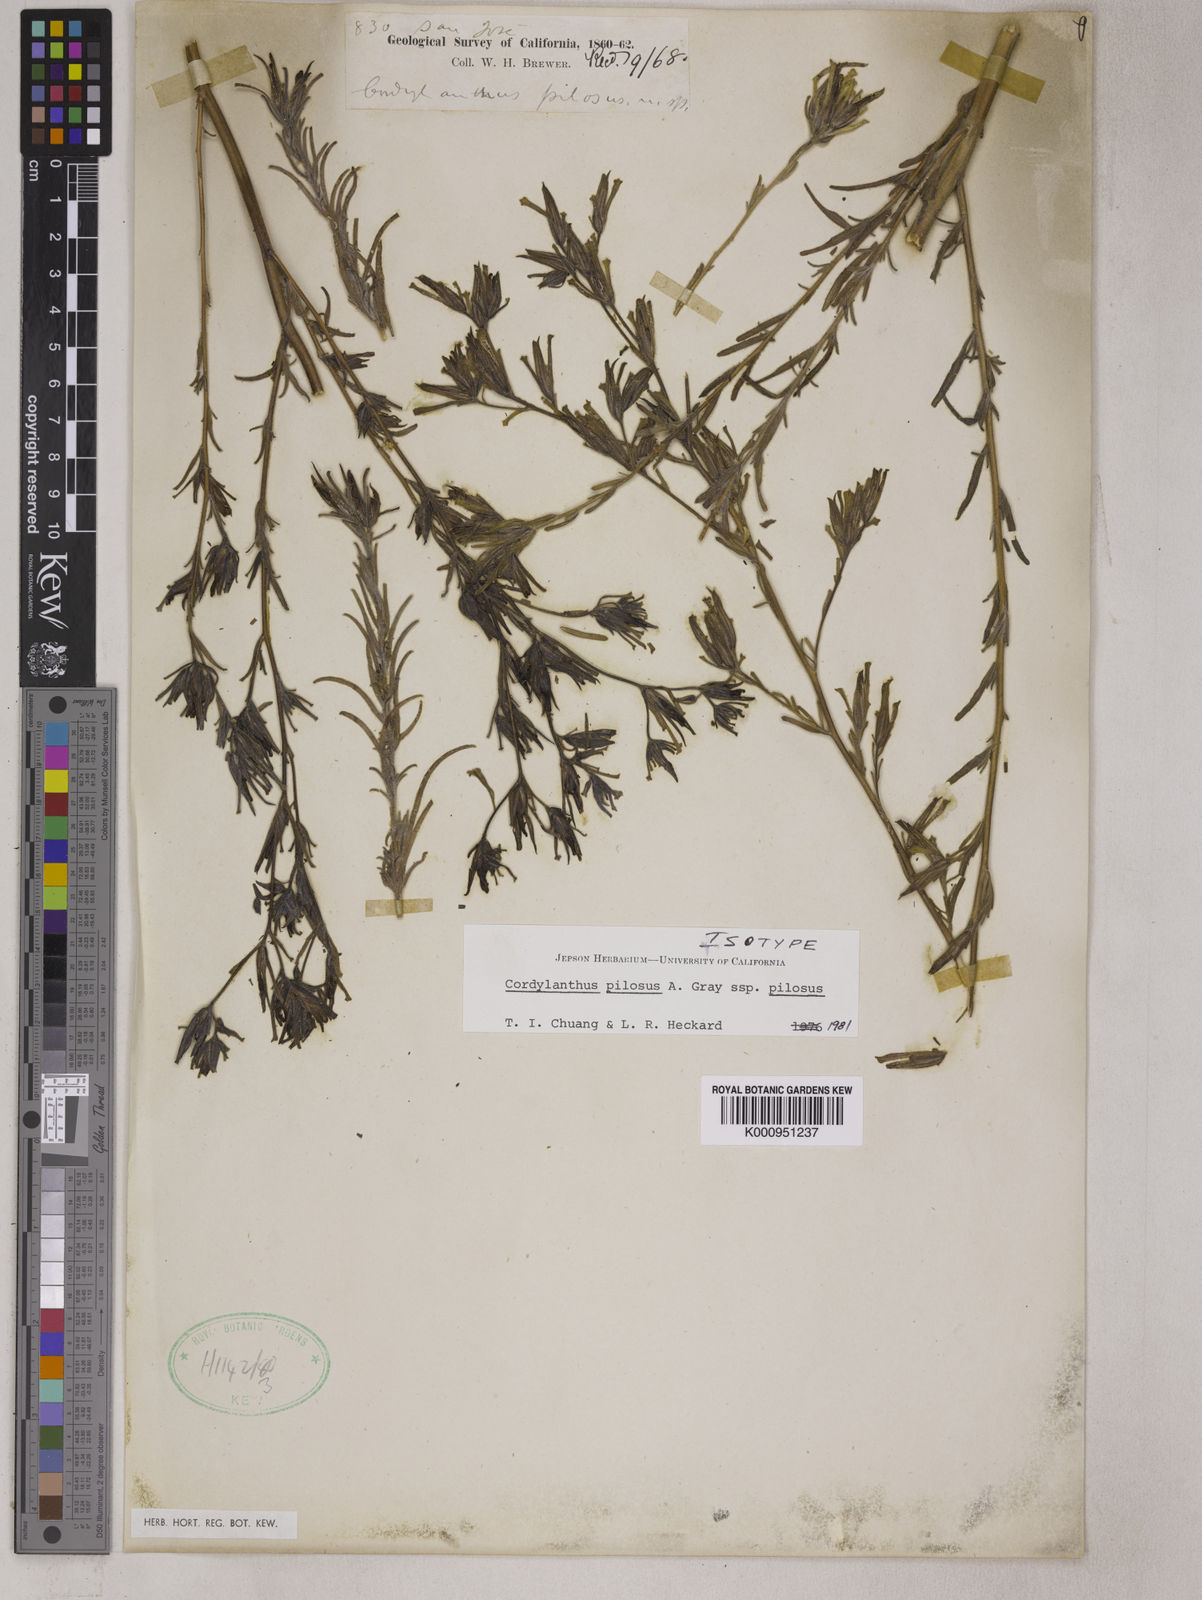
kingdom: Plantae
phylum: Tracheophyta
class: Magnoliopsida
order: Lamiales
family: Orobanchaceae
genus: Cordylanthus
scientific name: Cordylanthus pilosus
